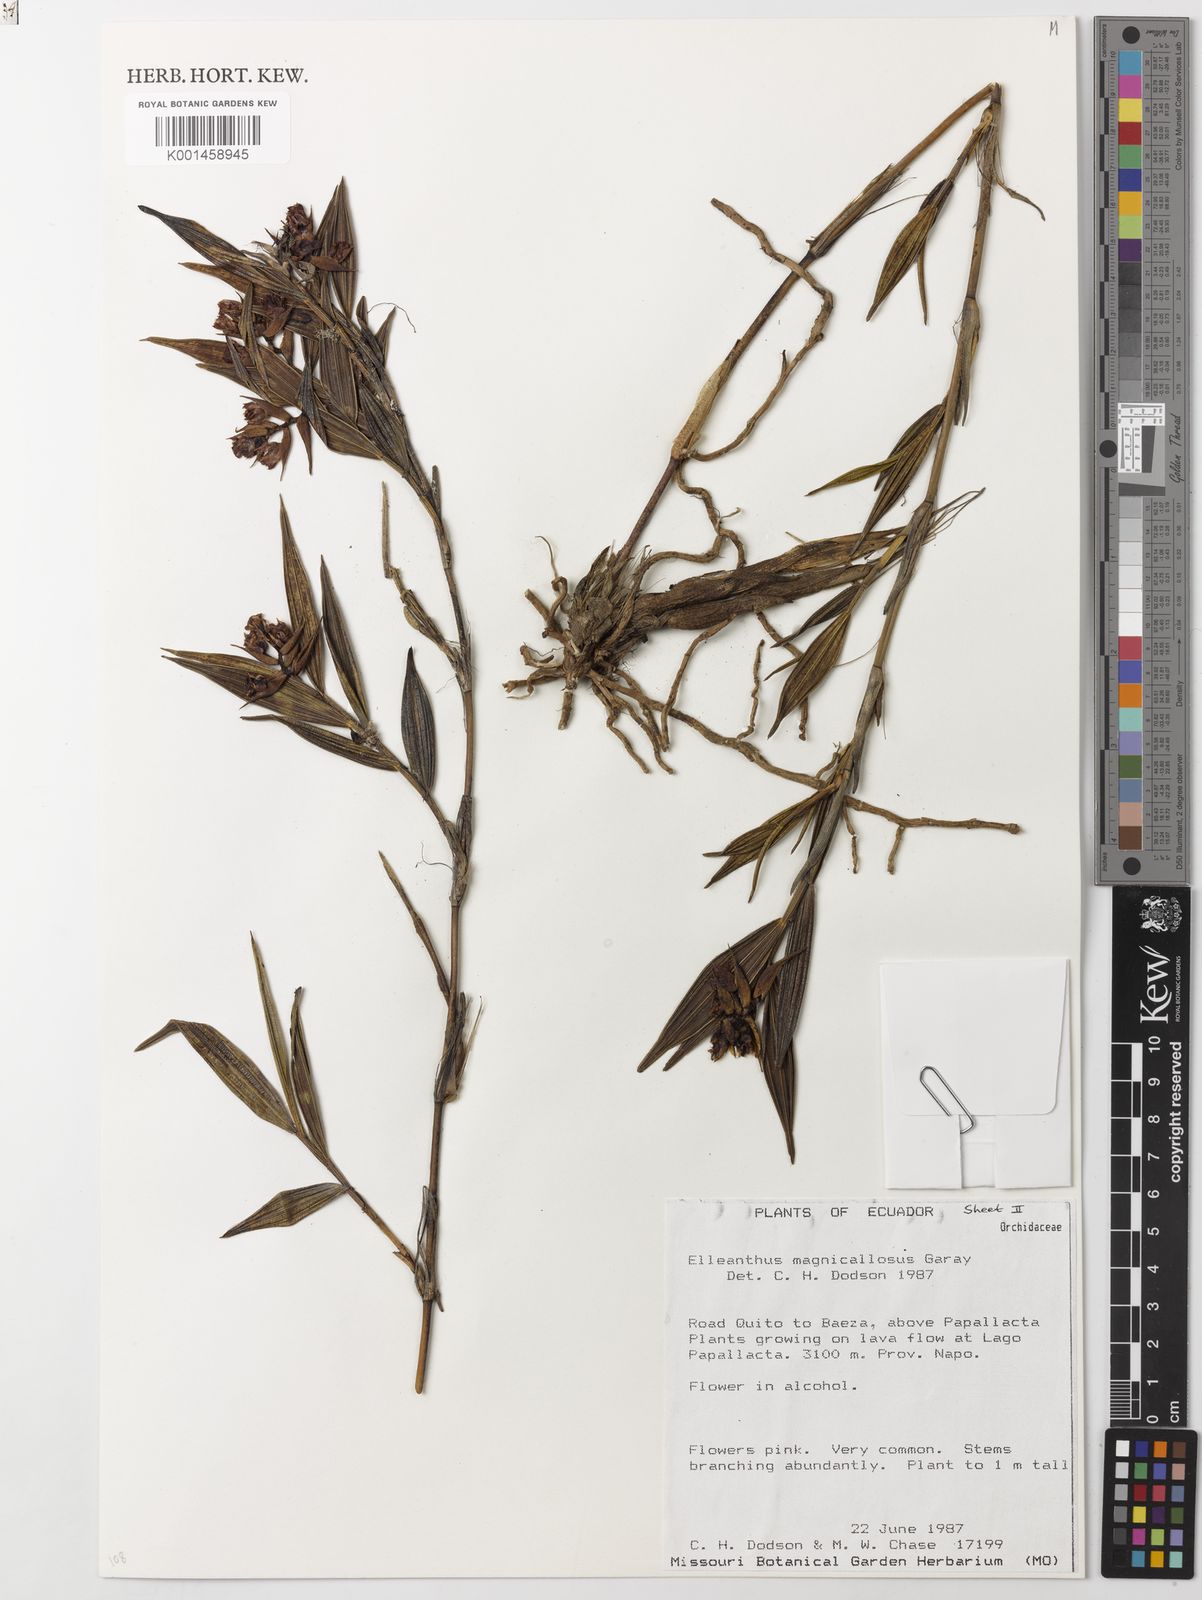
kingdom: Plantae
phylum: Tracheophyta
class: Liliopsida
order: Asparagales
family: Orchidaceae
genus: Elleanthus
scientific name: Elleanthus magnicallosus
